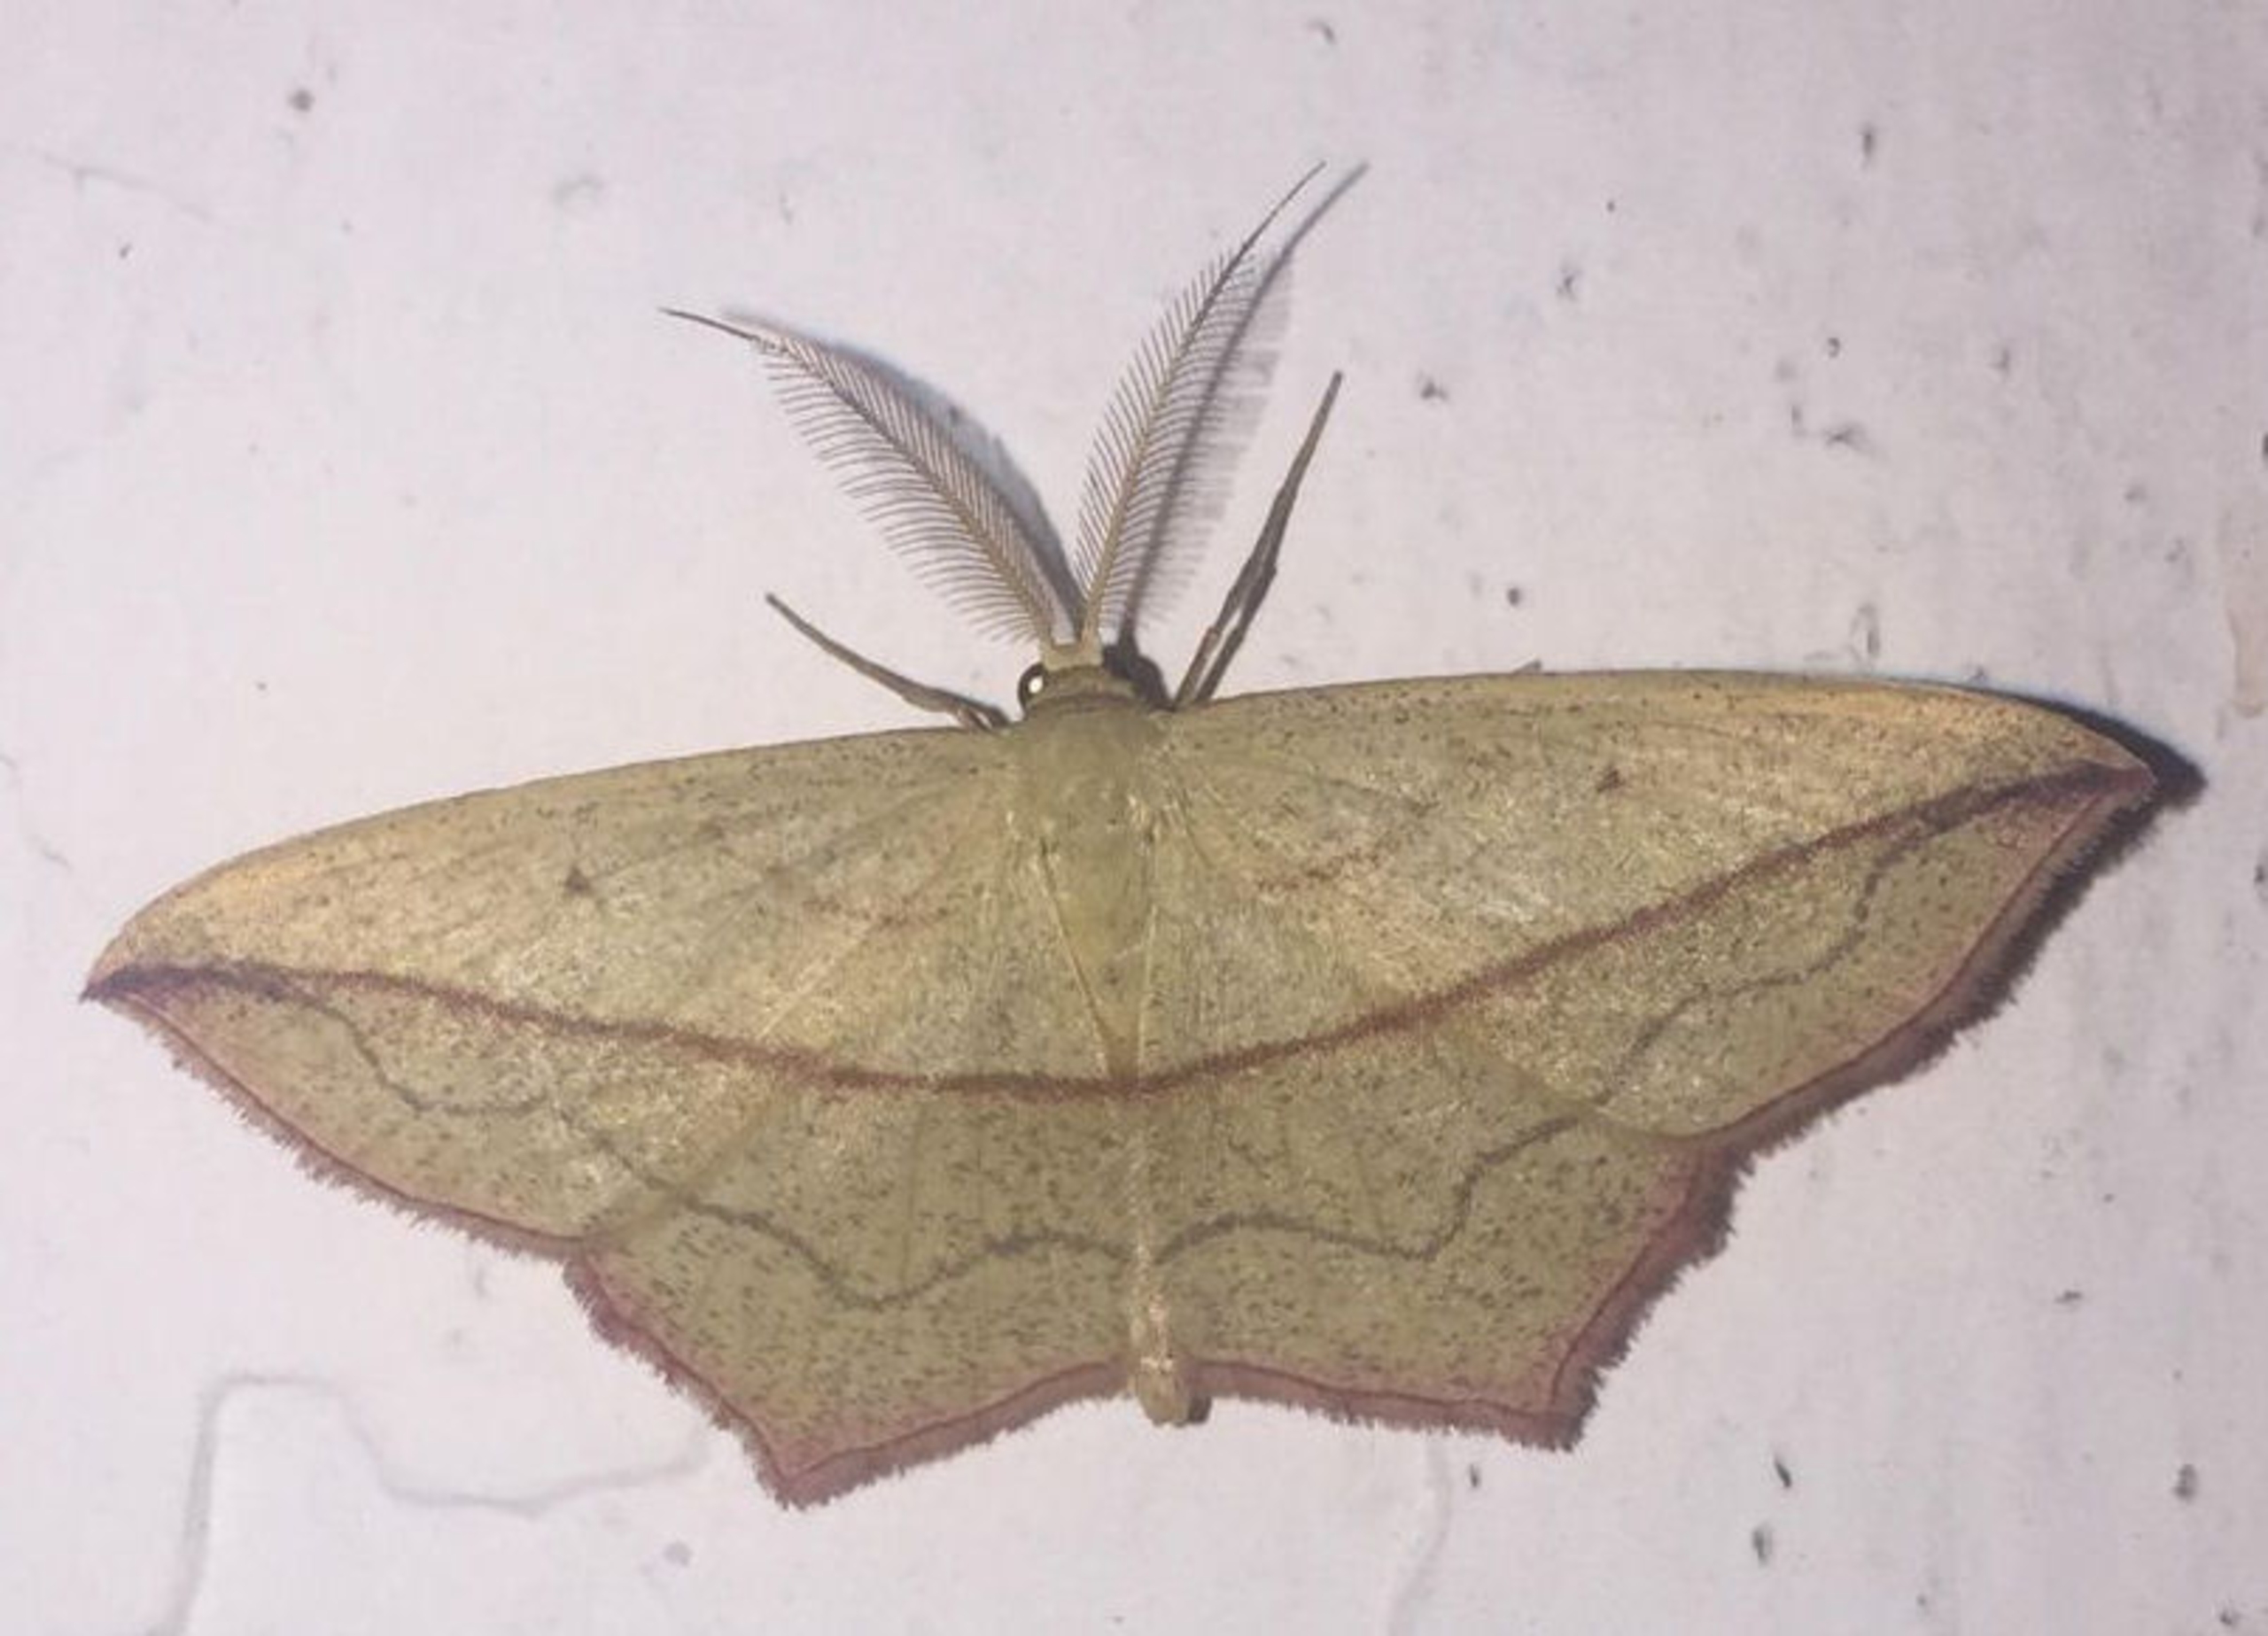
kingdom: Animalia
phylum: Arthropoda
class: Insecta
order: Lepidoptera
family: Geometridae
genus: Timandra
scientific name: Timandra comae
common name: Gul syremåler
